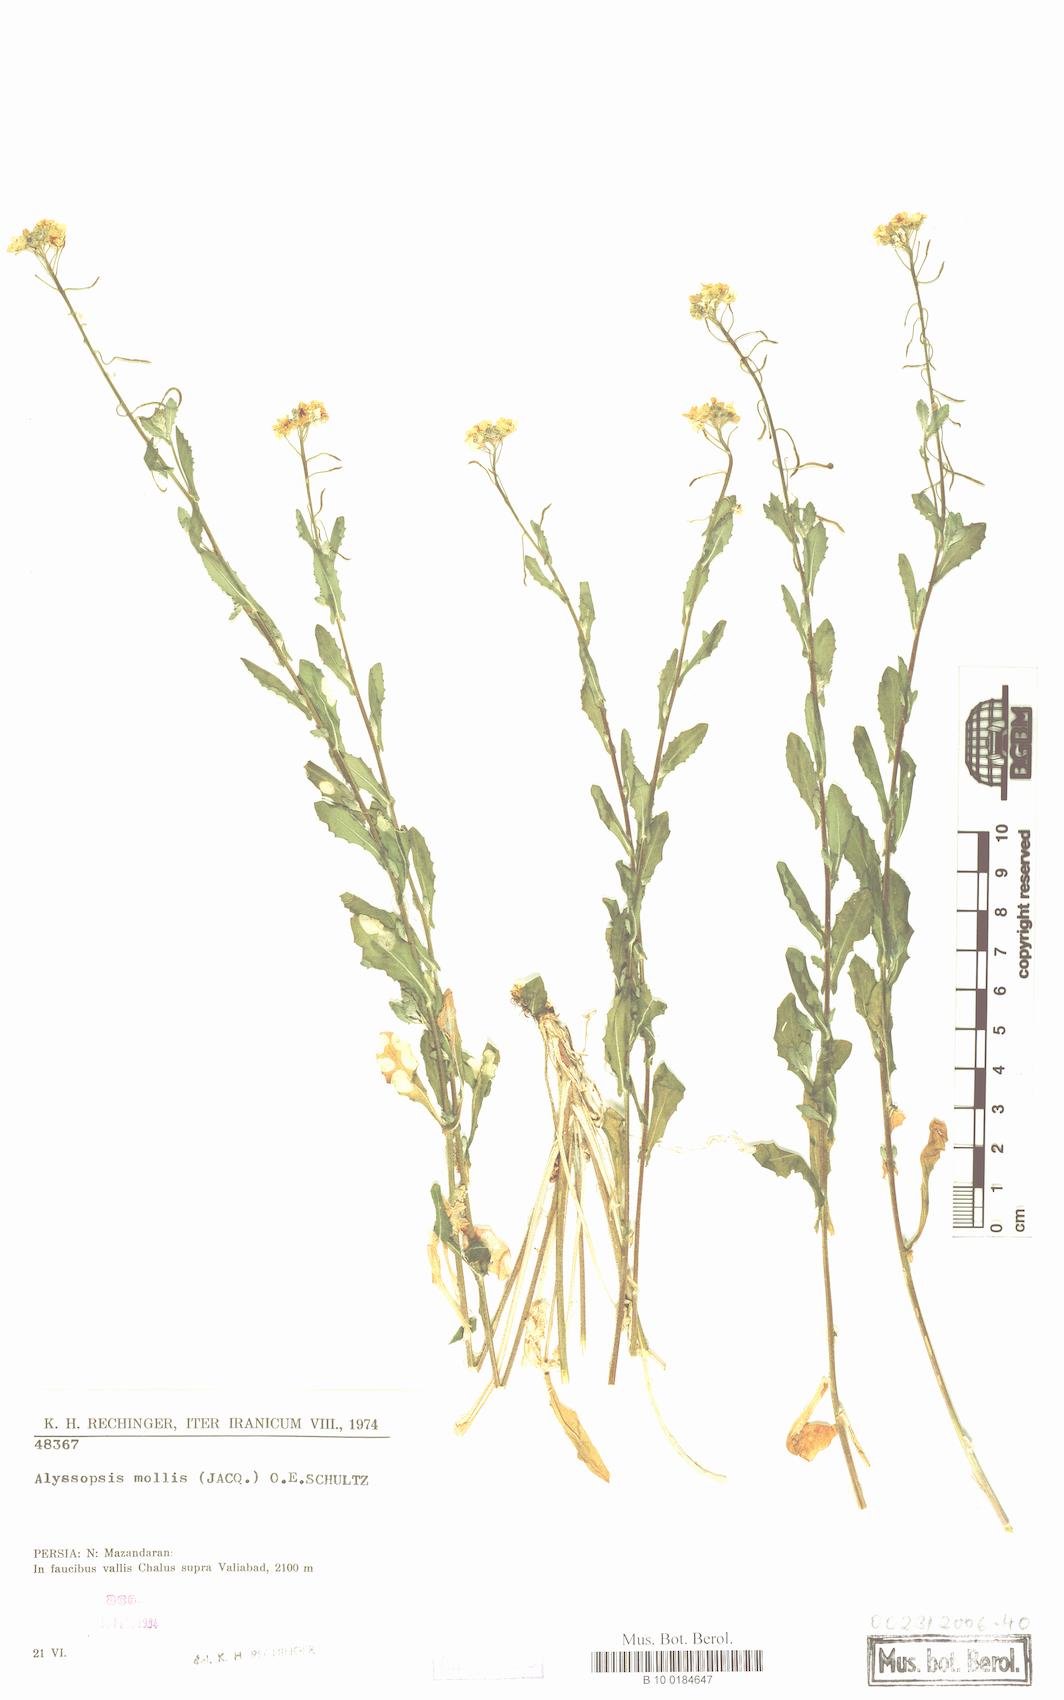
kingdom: Plantae
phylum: Tracheophyta
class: Magnoliopsida
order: Brassicales
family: Brassicaceae
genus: Alyssopsis
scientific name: Alyssopsis mollis
